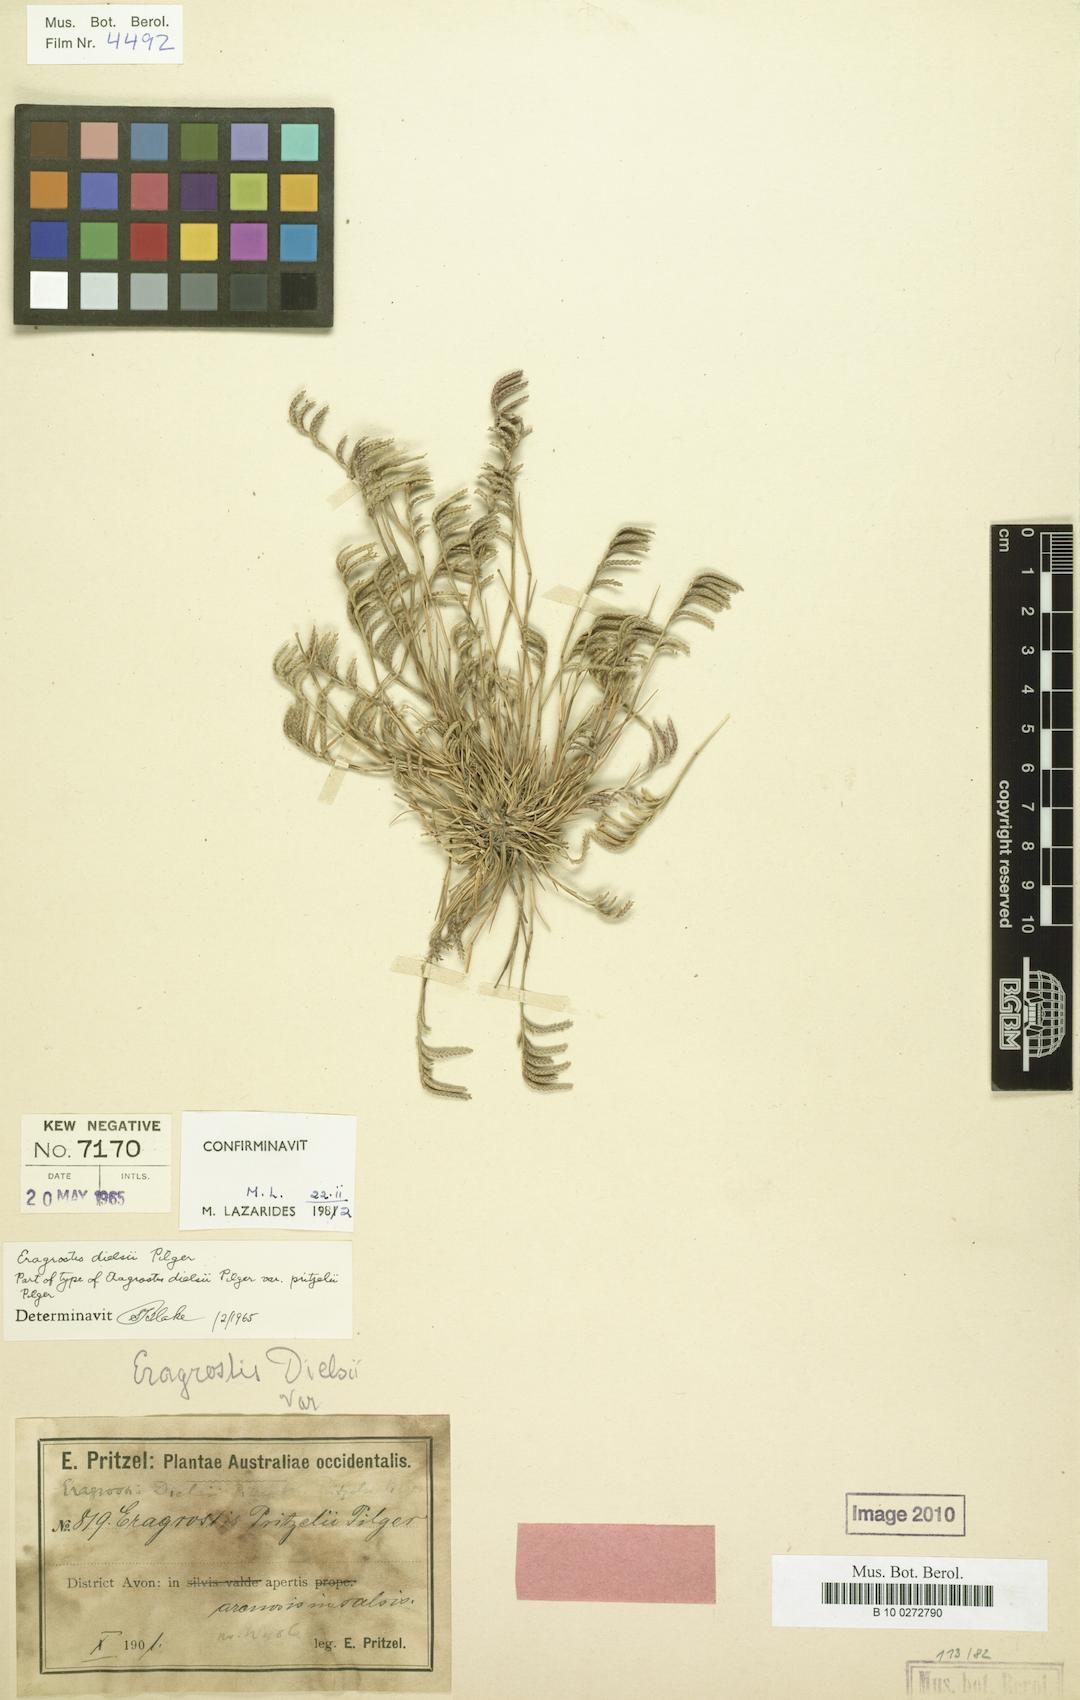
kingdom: Plantae
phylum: Tracheophyta
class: Liliopsida
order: Poales
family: Poaceae
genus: Eragrostis
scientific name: Eragrostis dielsii
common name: Lovegrass
